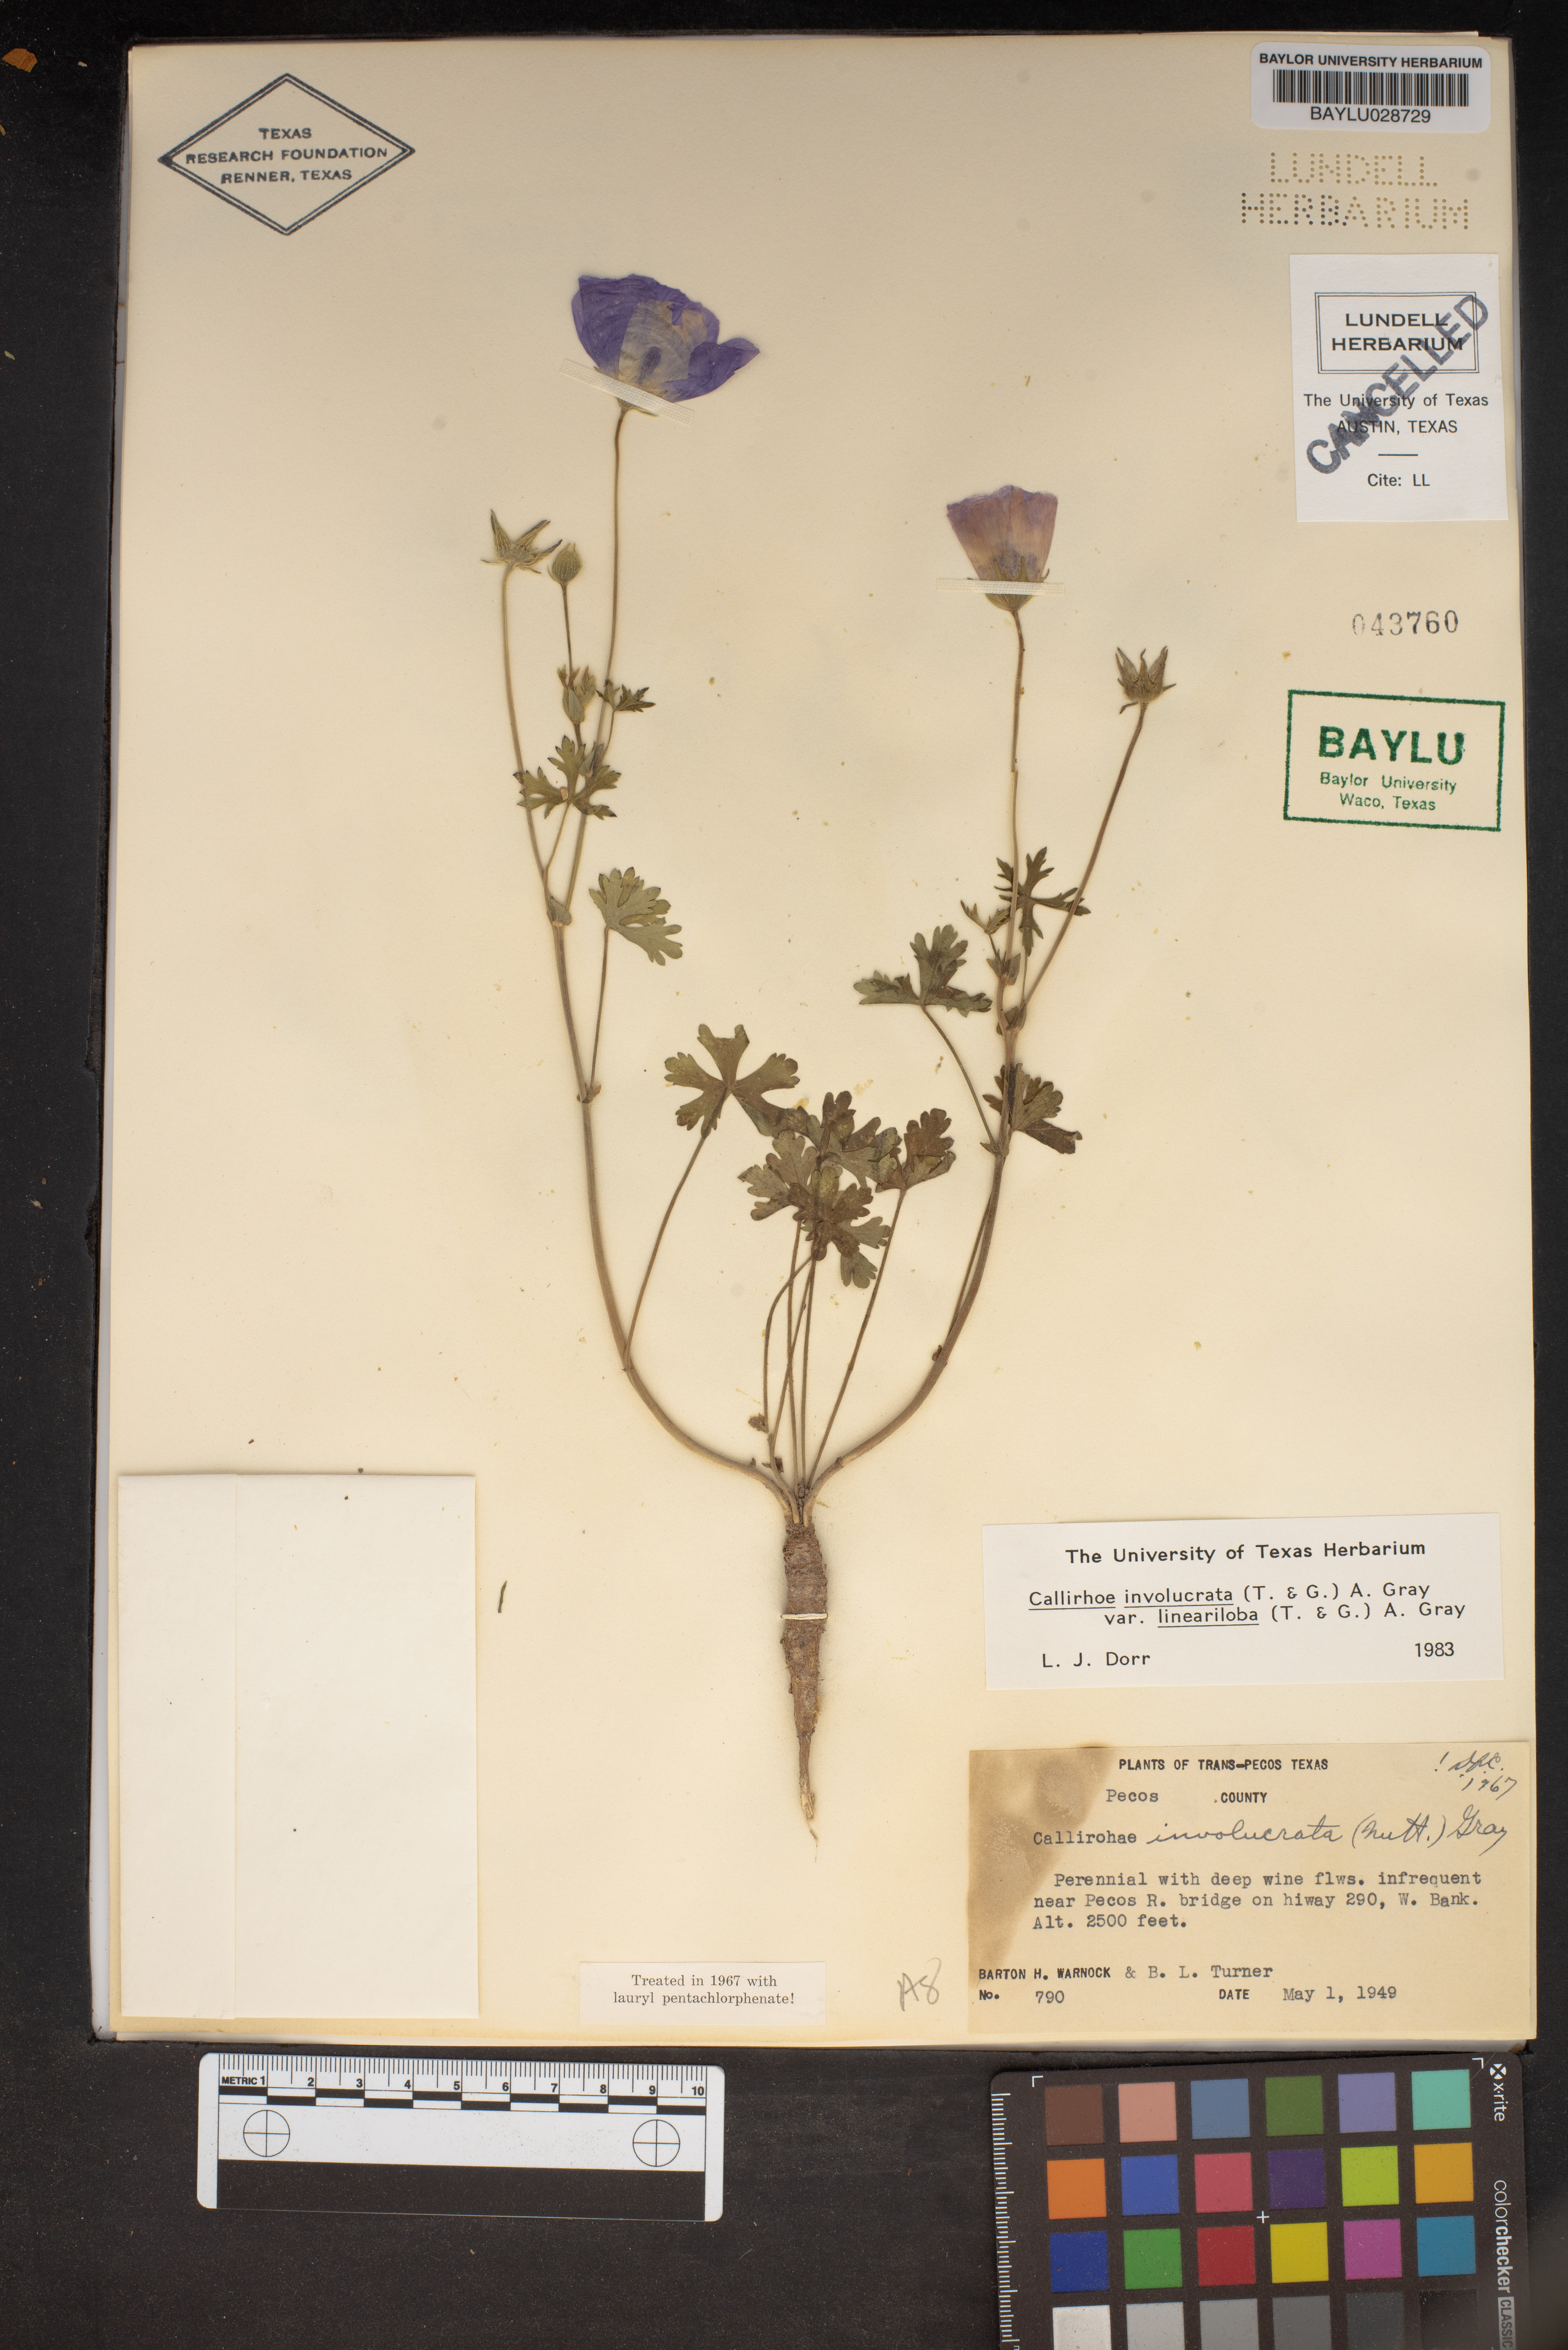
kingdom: Plantae
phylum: Tracheophyta
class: Magnoliopsida
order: Malvales
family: Malvaceae
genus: Callirhoe
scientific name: Callirhoe involucrata
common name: Purple poppy-mallow
